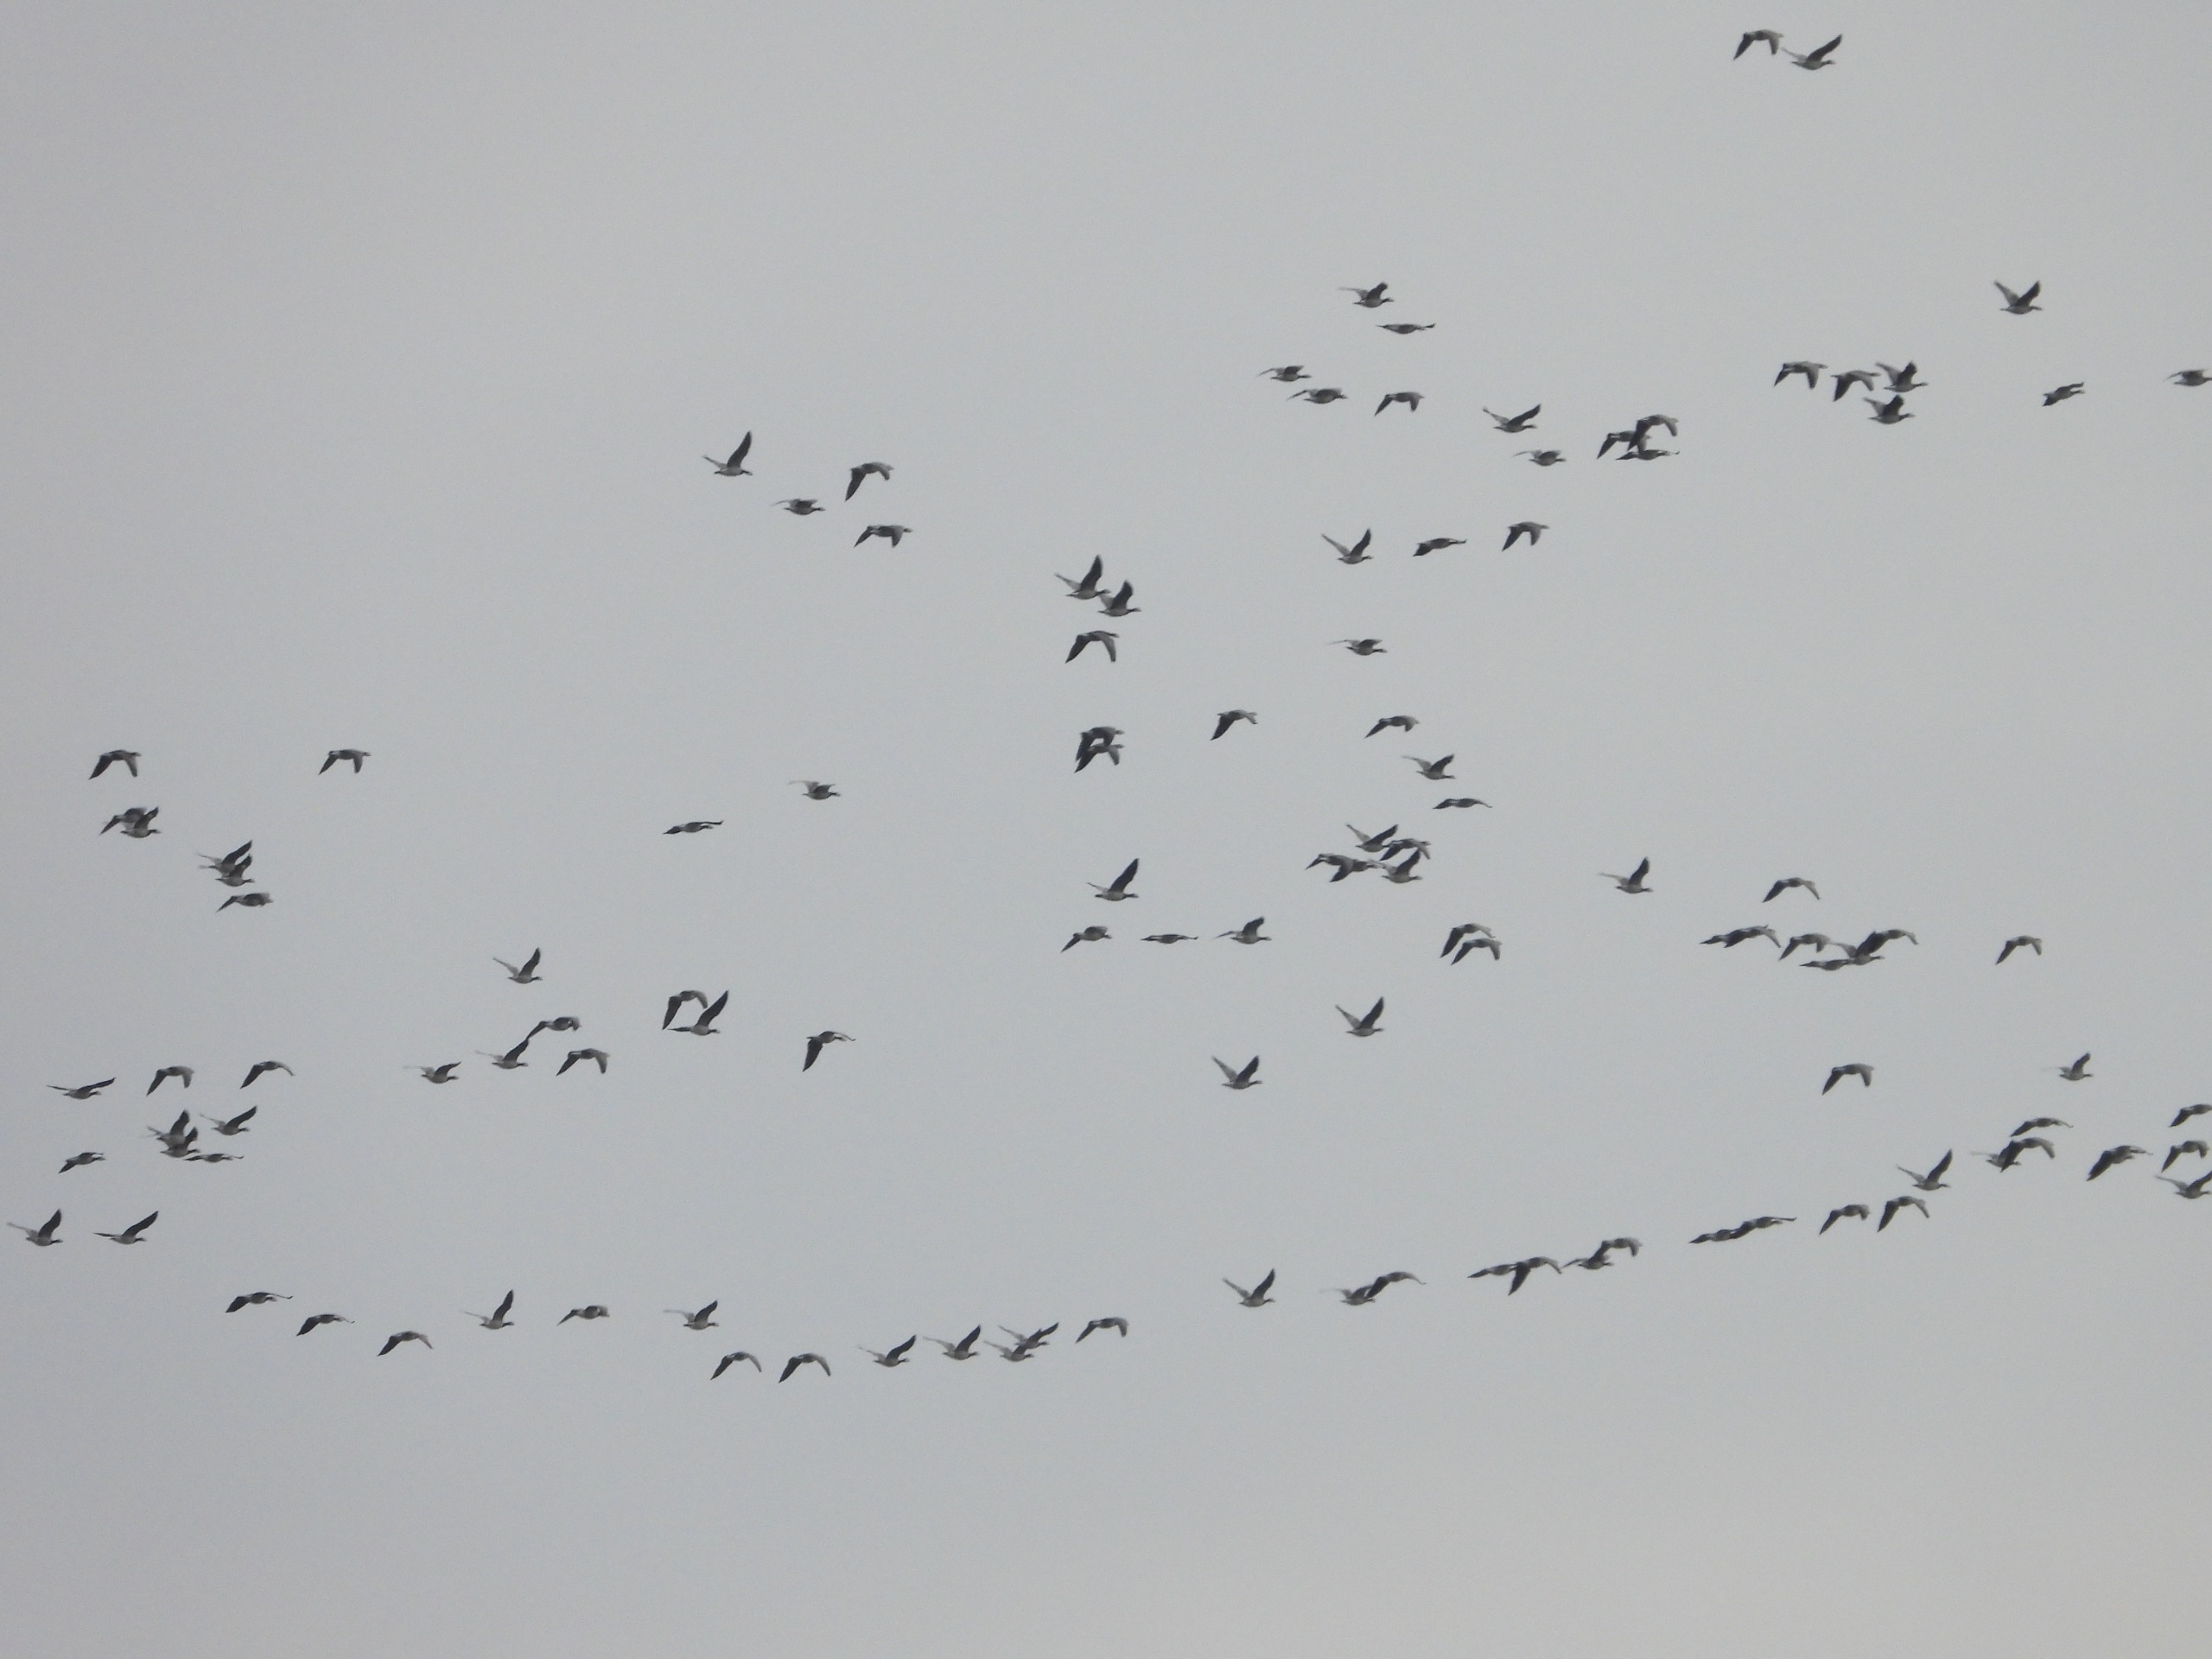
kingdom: Animalia
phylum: Chordata
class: Aves
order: Anseriformes
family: Anatidae
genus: Branta
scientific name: Branta leucopsis
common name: Bramgås
